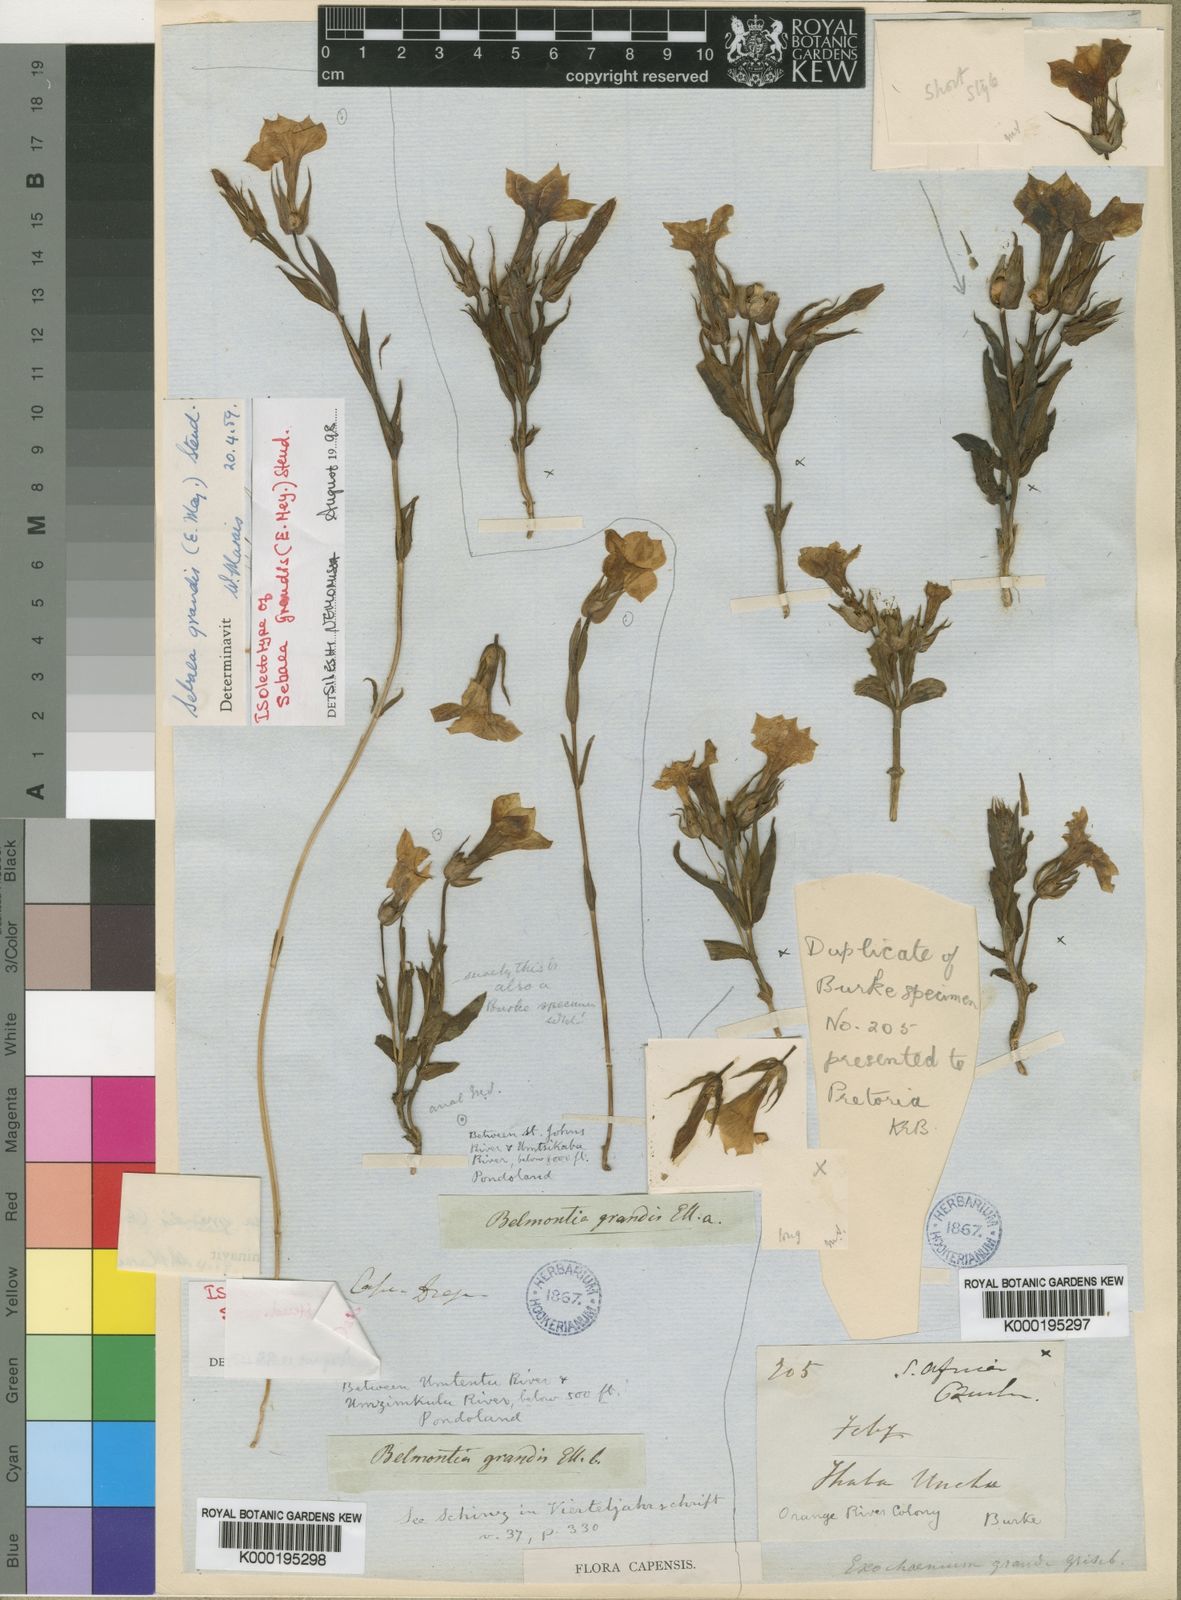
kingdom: Plantae
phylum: Tracheophyta
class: Magnoliopsida
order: Gentianales
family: Gentianaceae
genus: Exochaenium
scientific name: Exochaenium grande
